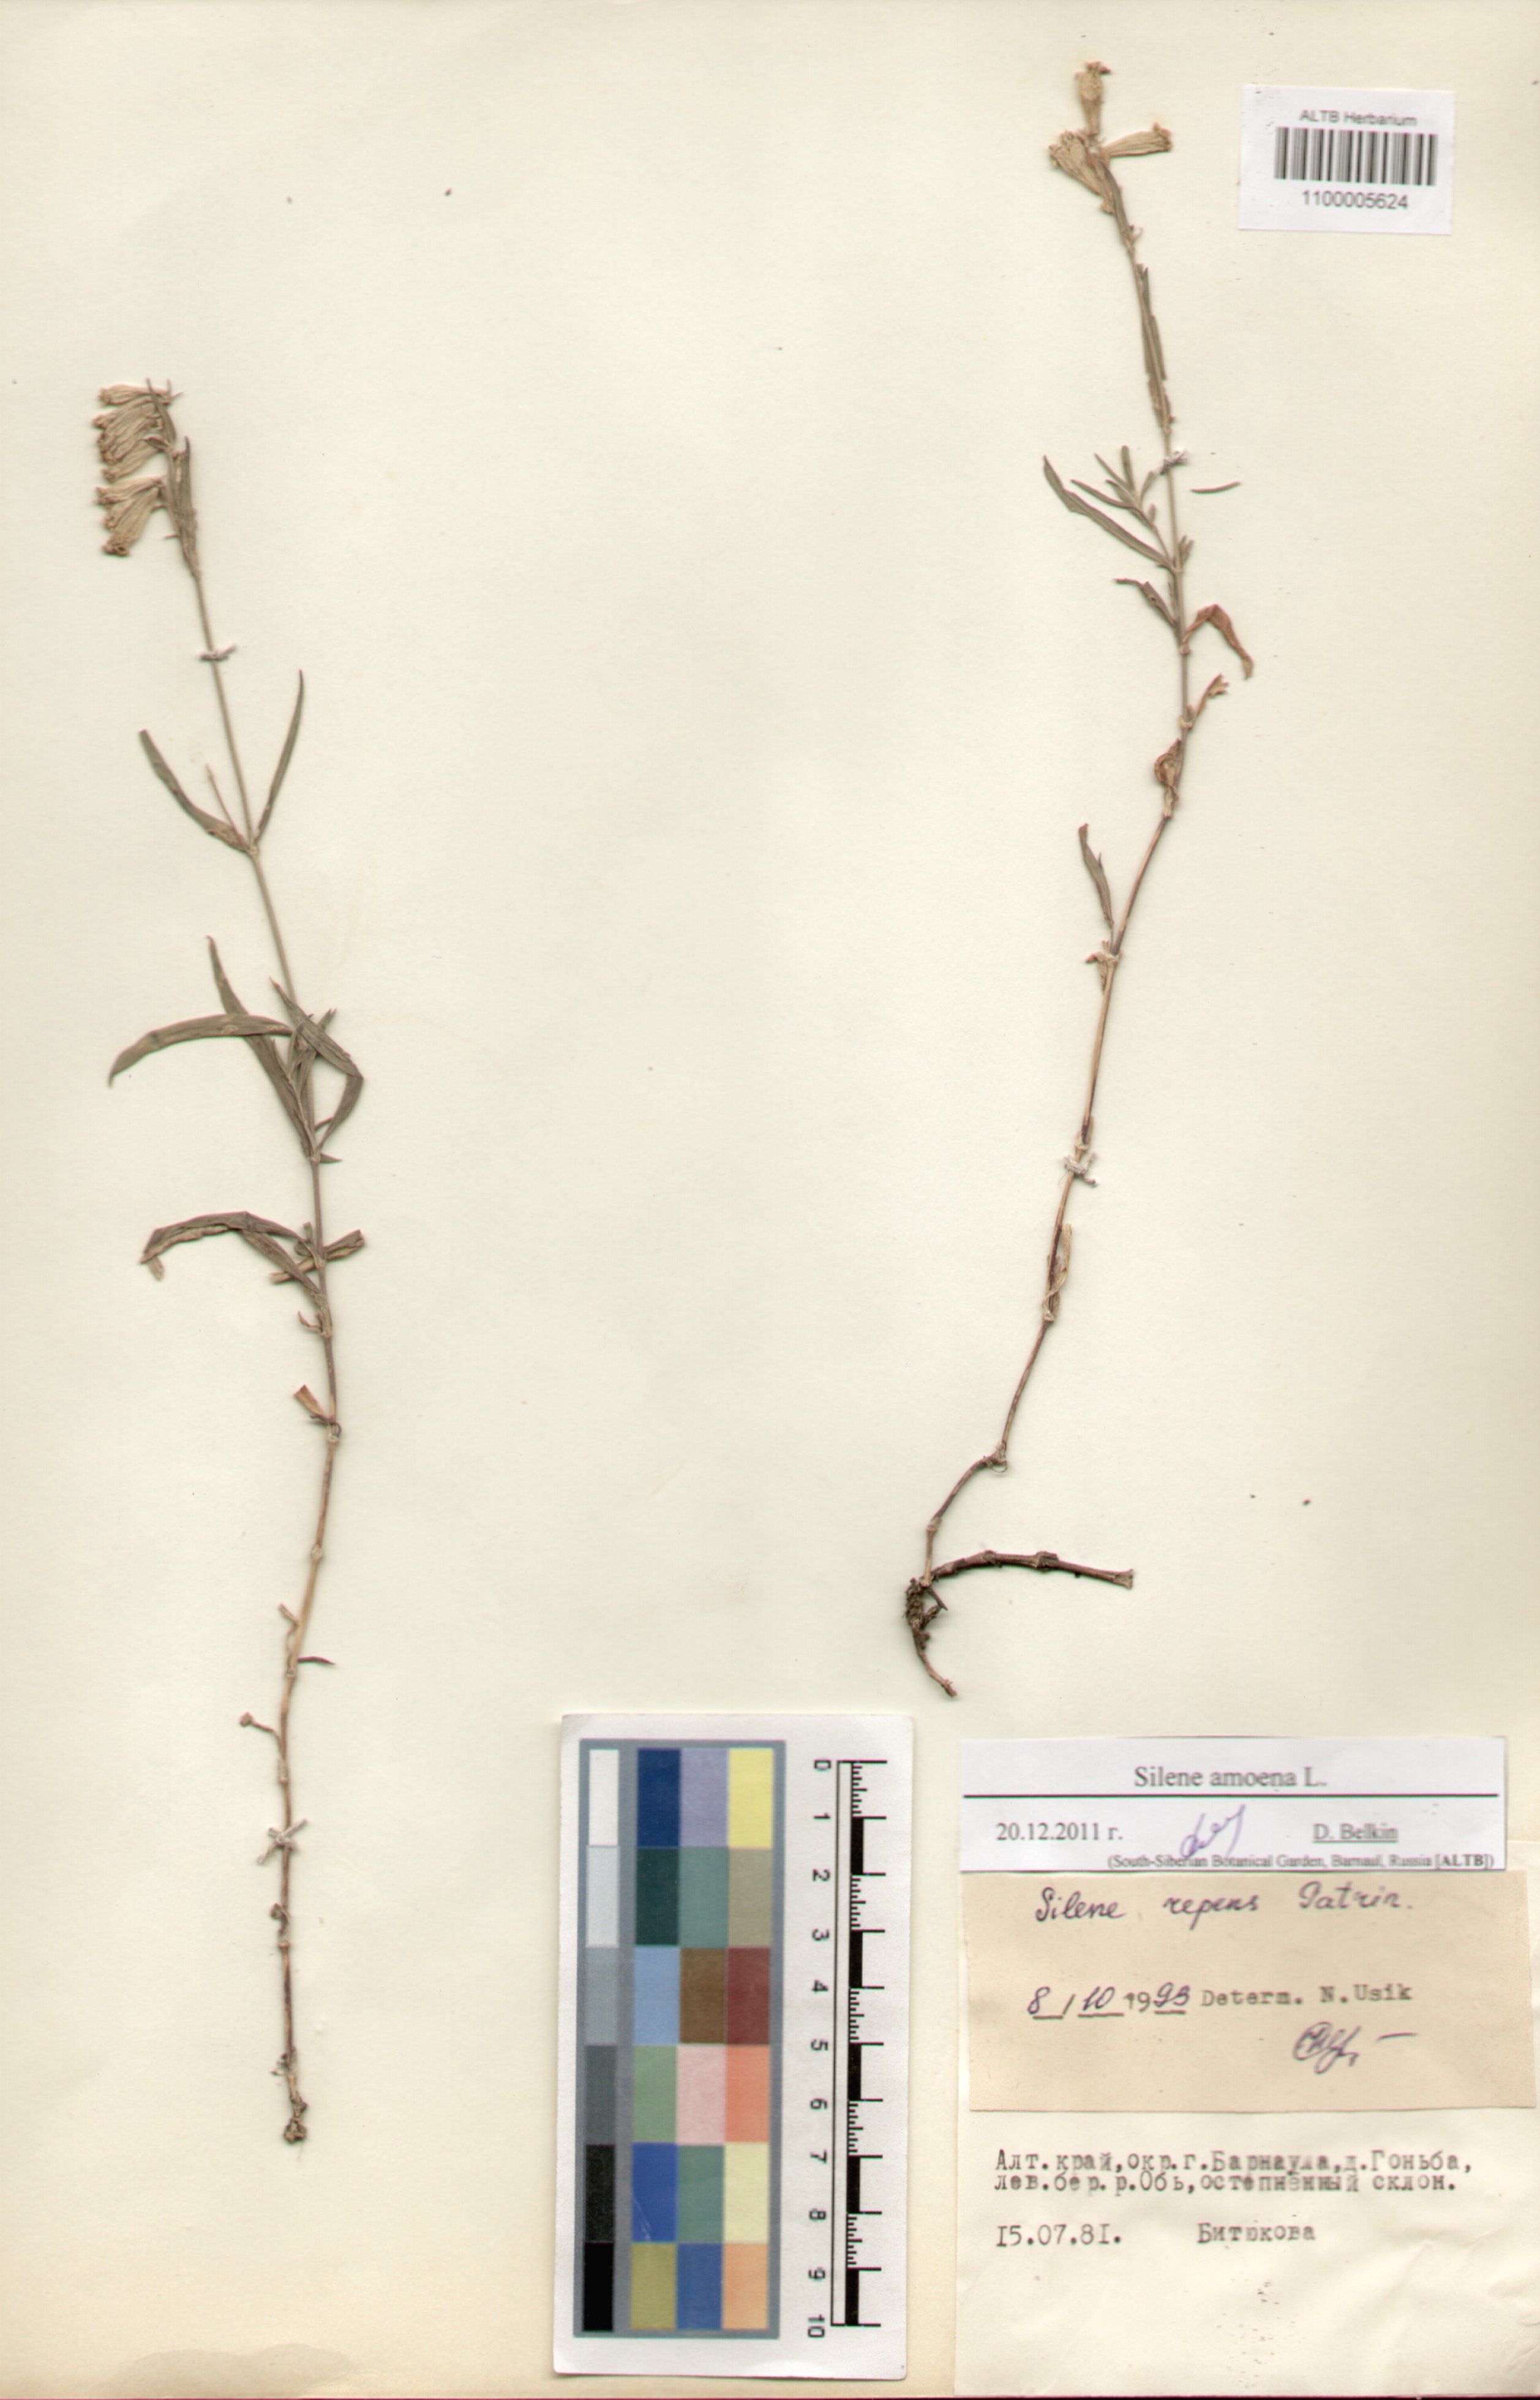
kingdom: Plantae
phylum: Tracheophyta
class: Magnoliopsida
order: Caryophyllales
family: Caryophyllaceae
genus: Silene
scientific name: Silene amoena
